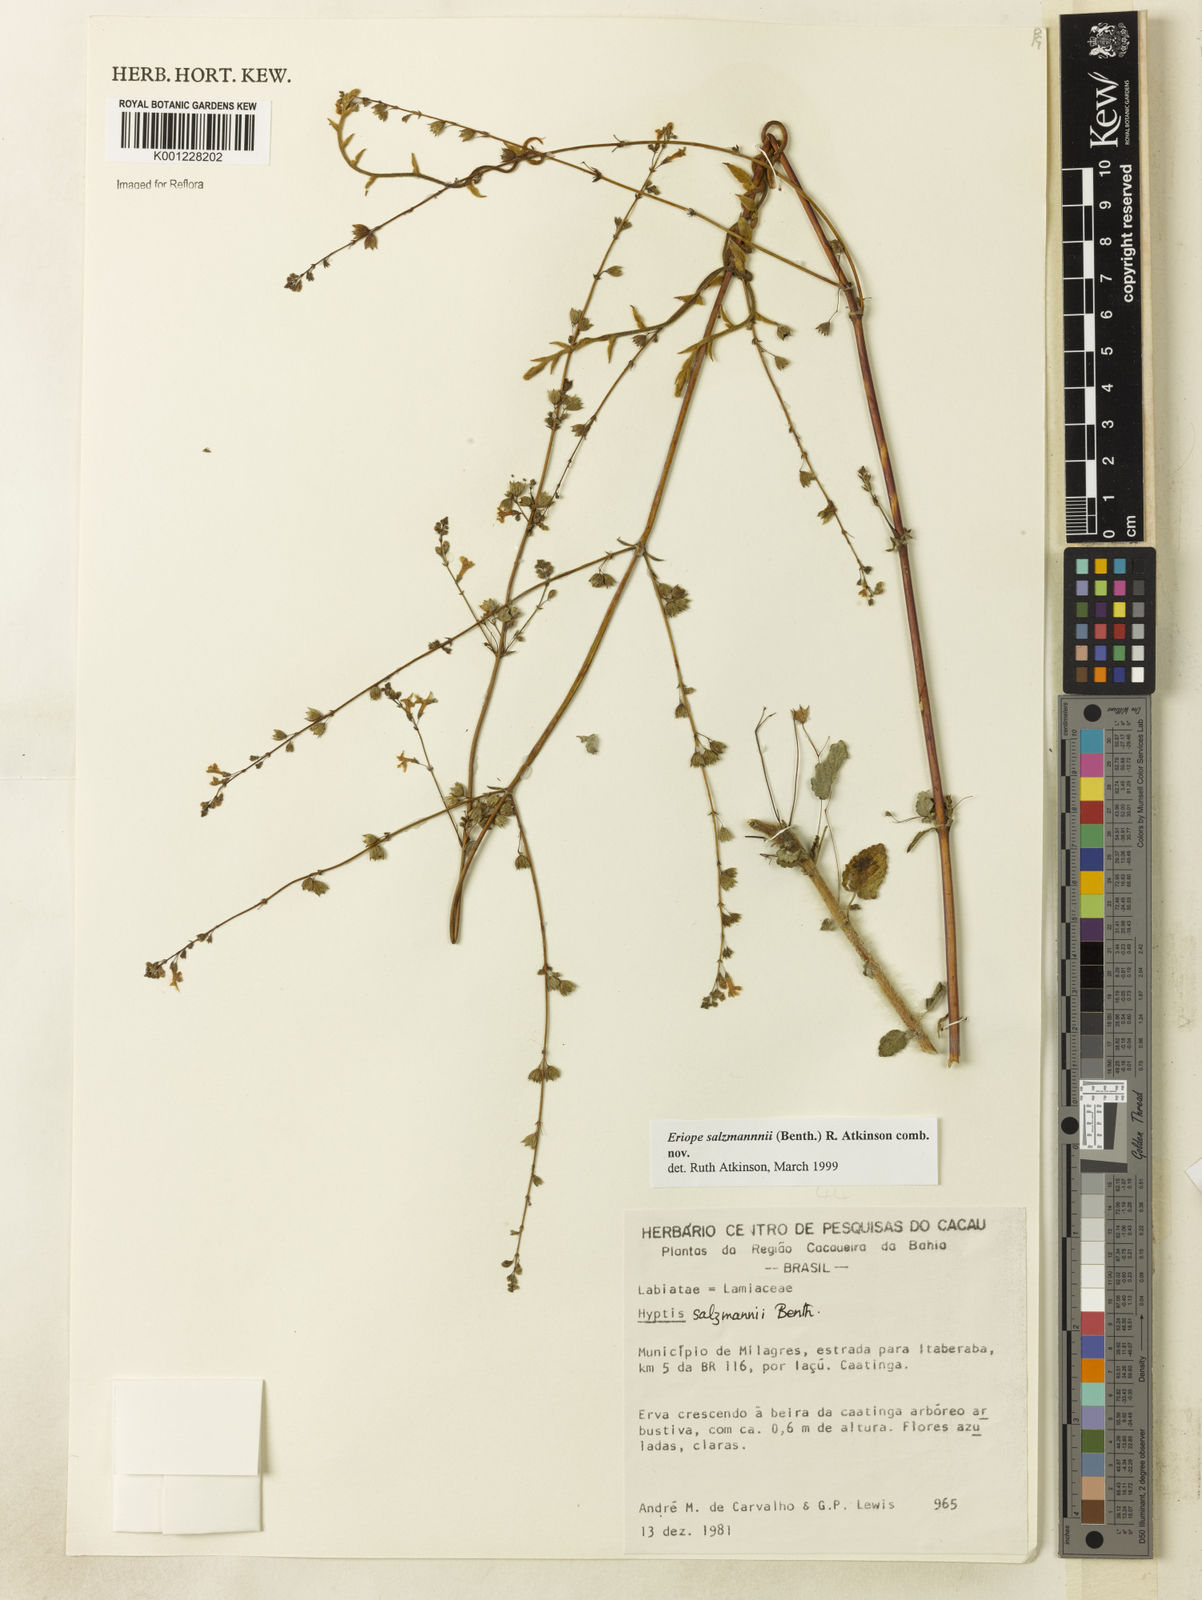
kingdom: Plantae
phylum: Tracheophyta
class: Magnoliopsida
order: Lamiales
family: Lamiaceae
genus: Hypenia
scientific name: Hypenia salzmannii
